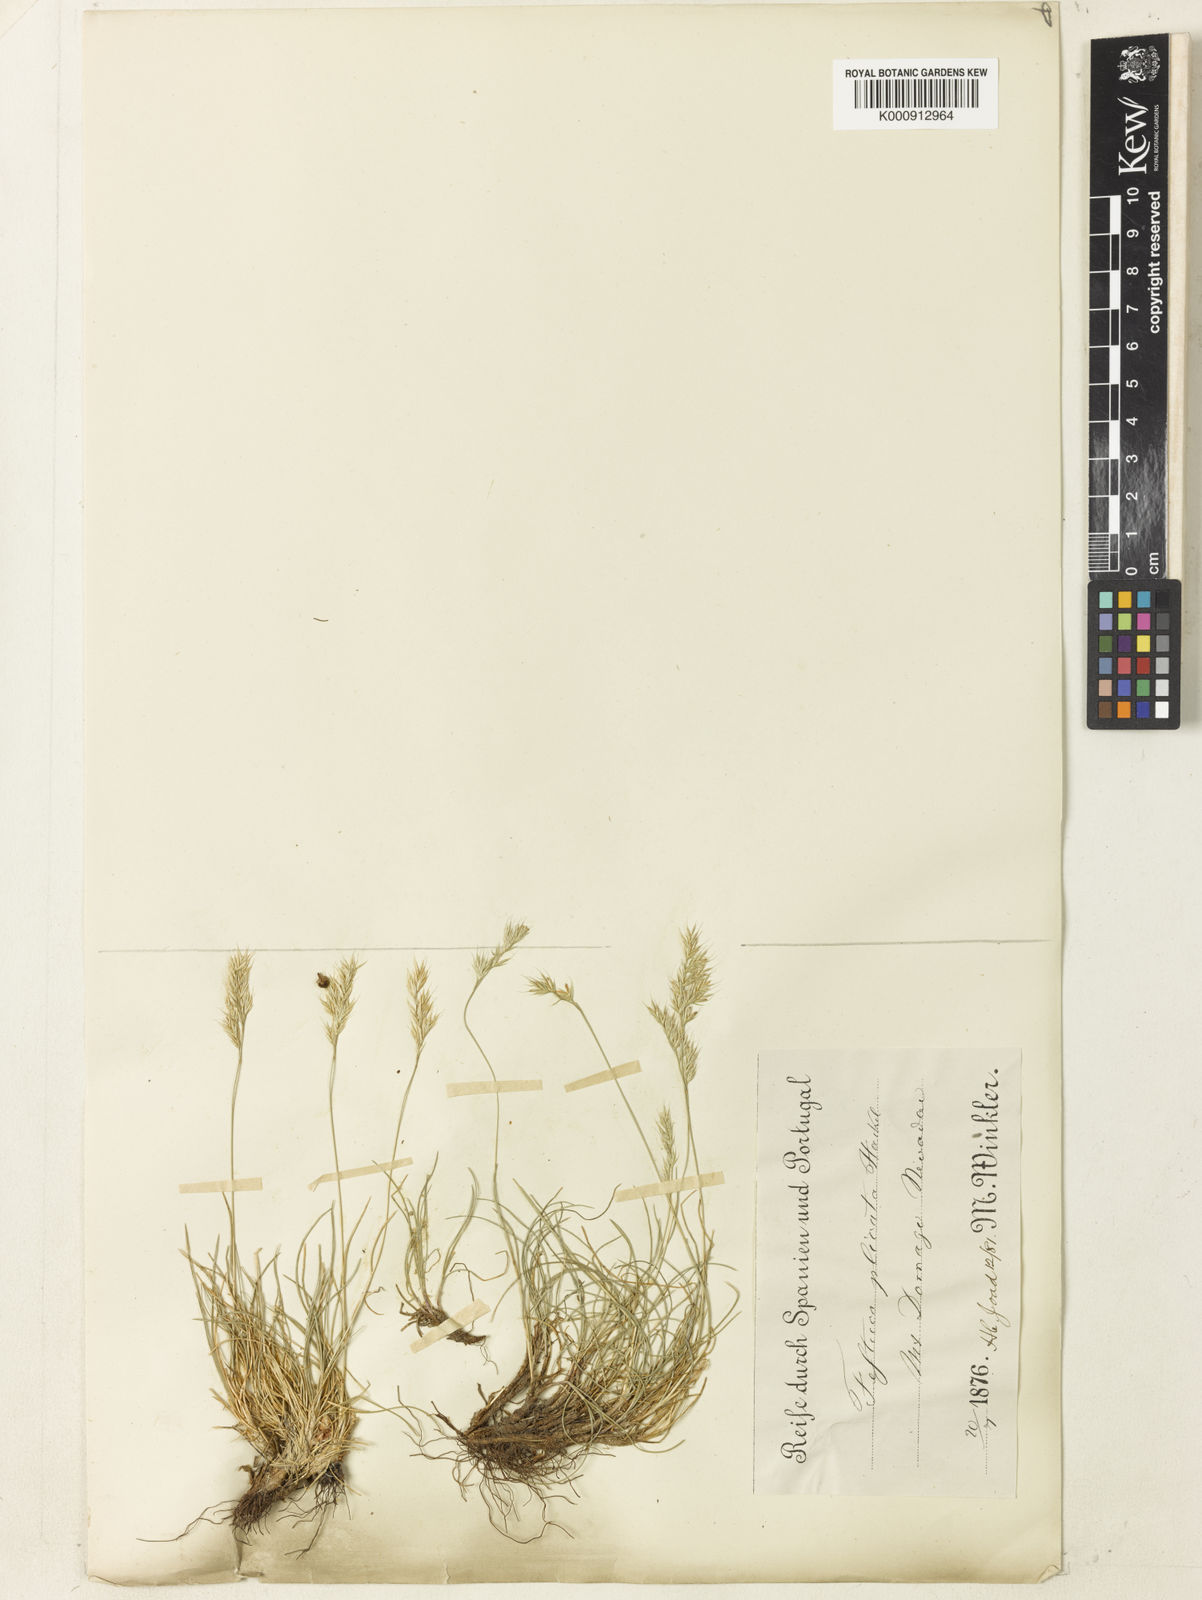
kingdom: Plantae
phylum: Tracheophyta
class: Liliopsida
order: Poales
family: Poaceae
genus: Festuca
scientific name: Festuca plicata
